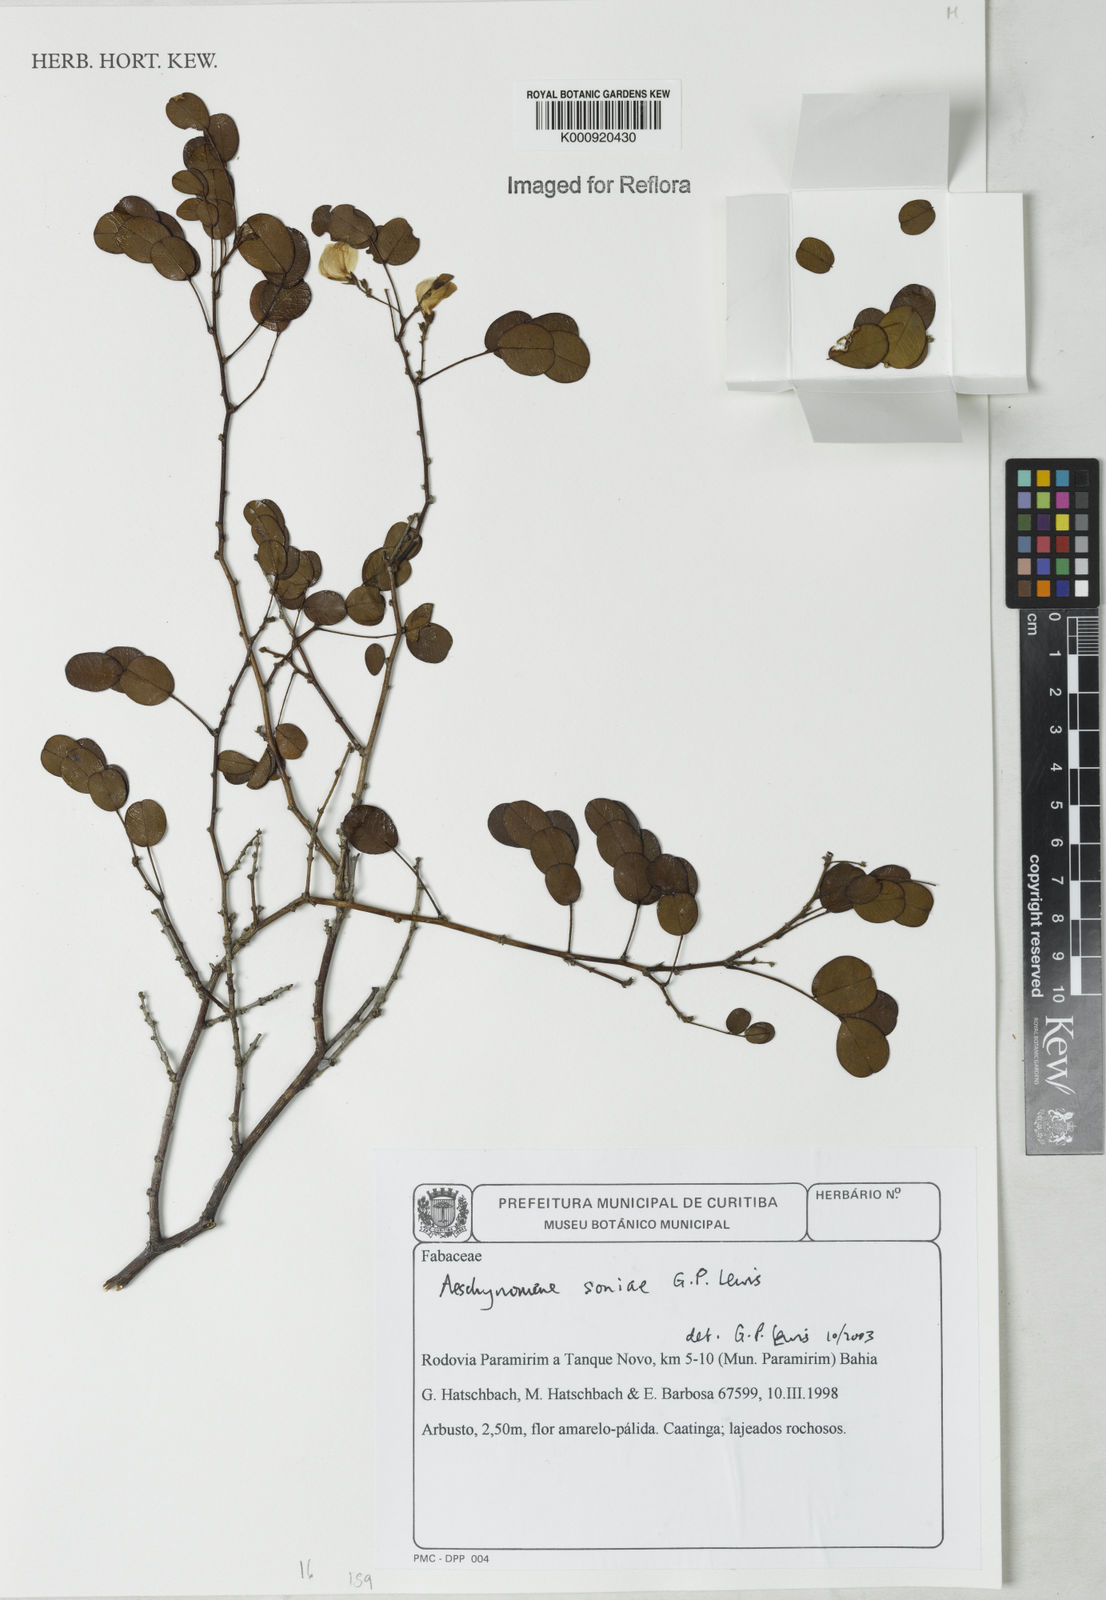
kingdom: Plantae
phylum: Tracheophyta
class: Magnoliopsida
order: Fabales
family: Fabaceae
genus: Ctenodon
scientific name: Ctenodon soniae
